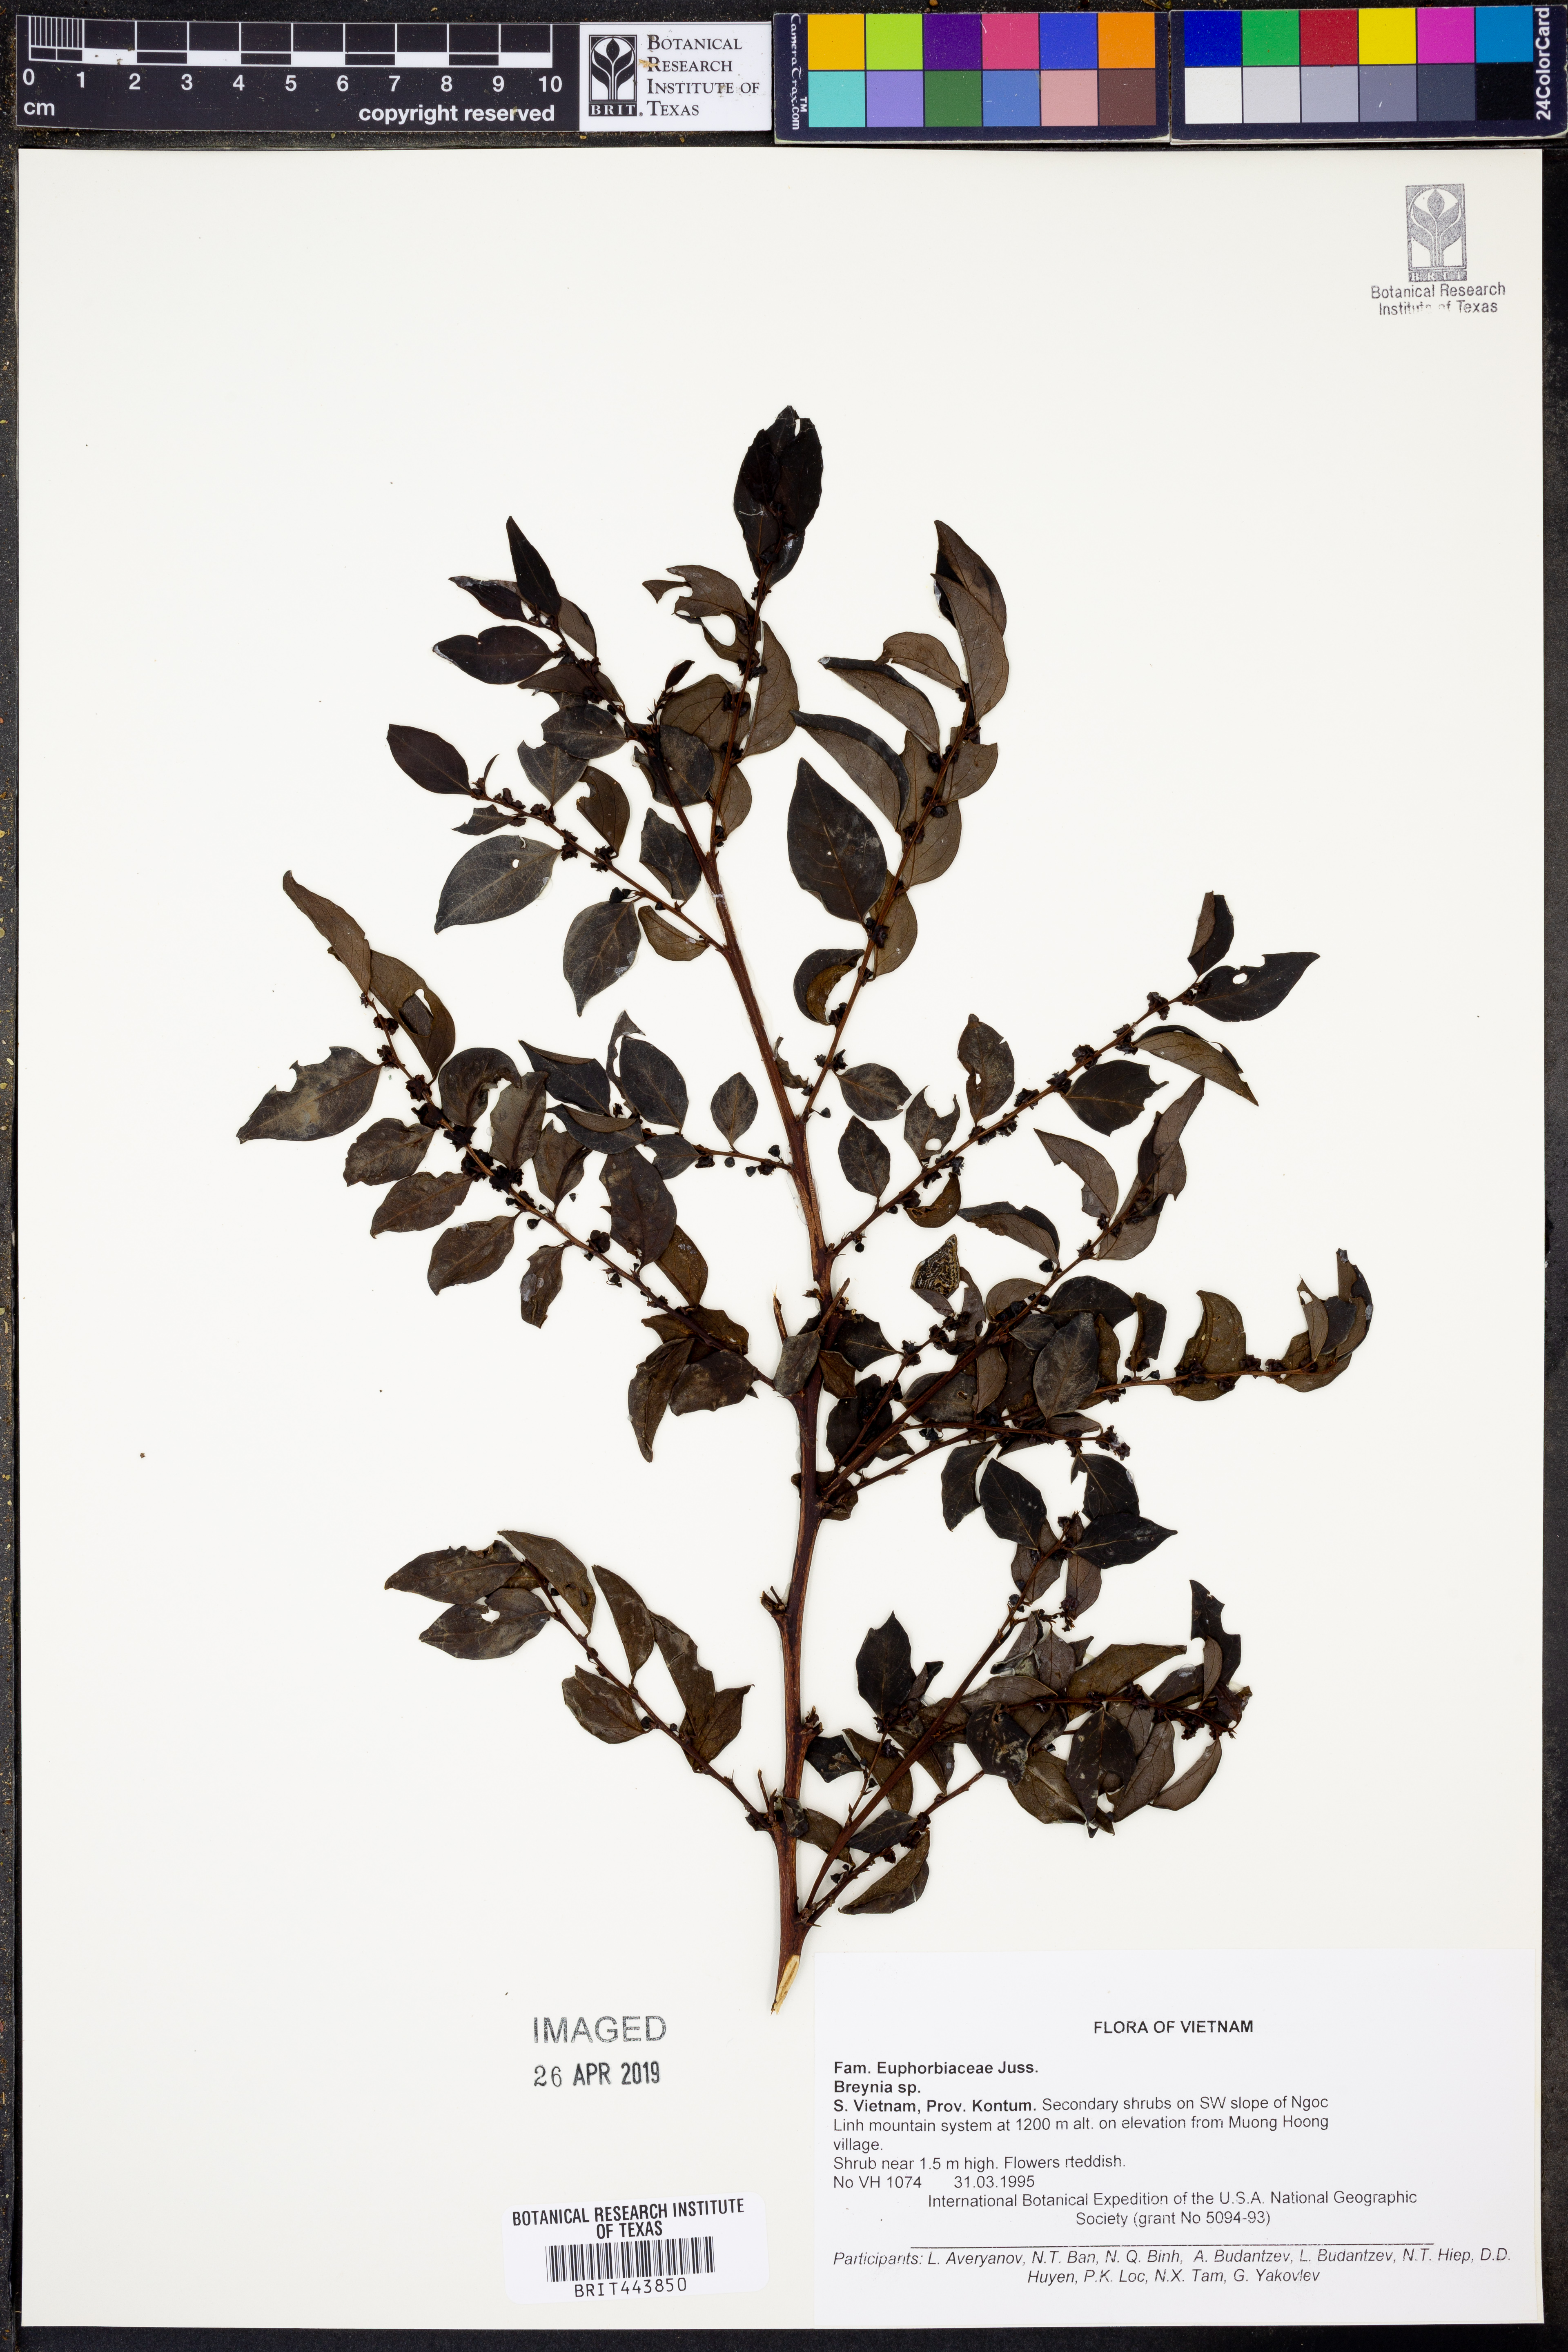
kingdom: Plantae
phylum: Tracheophyta
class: Magnoliopsida
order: Malpighiales
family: Phyllanthaceae
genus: Breynia
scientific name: Breynia
